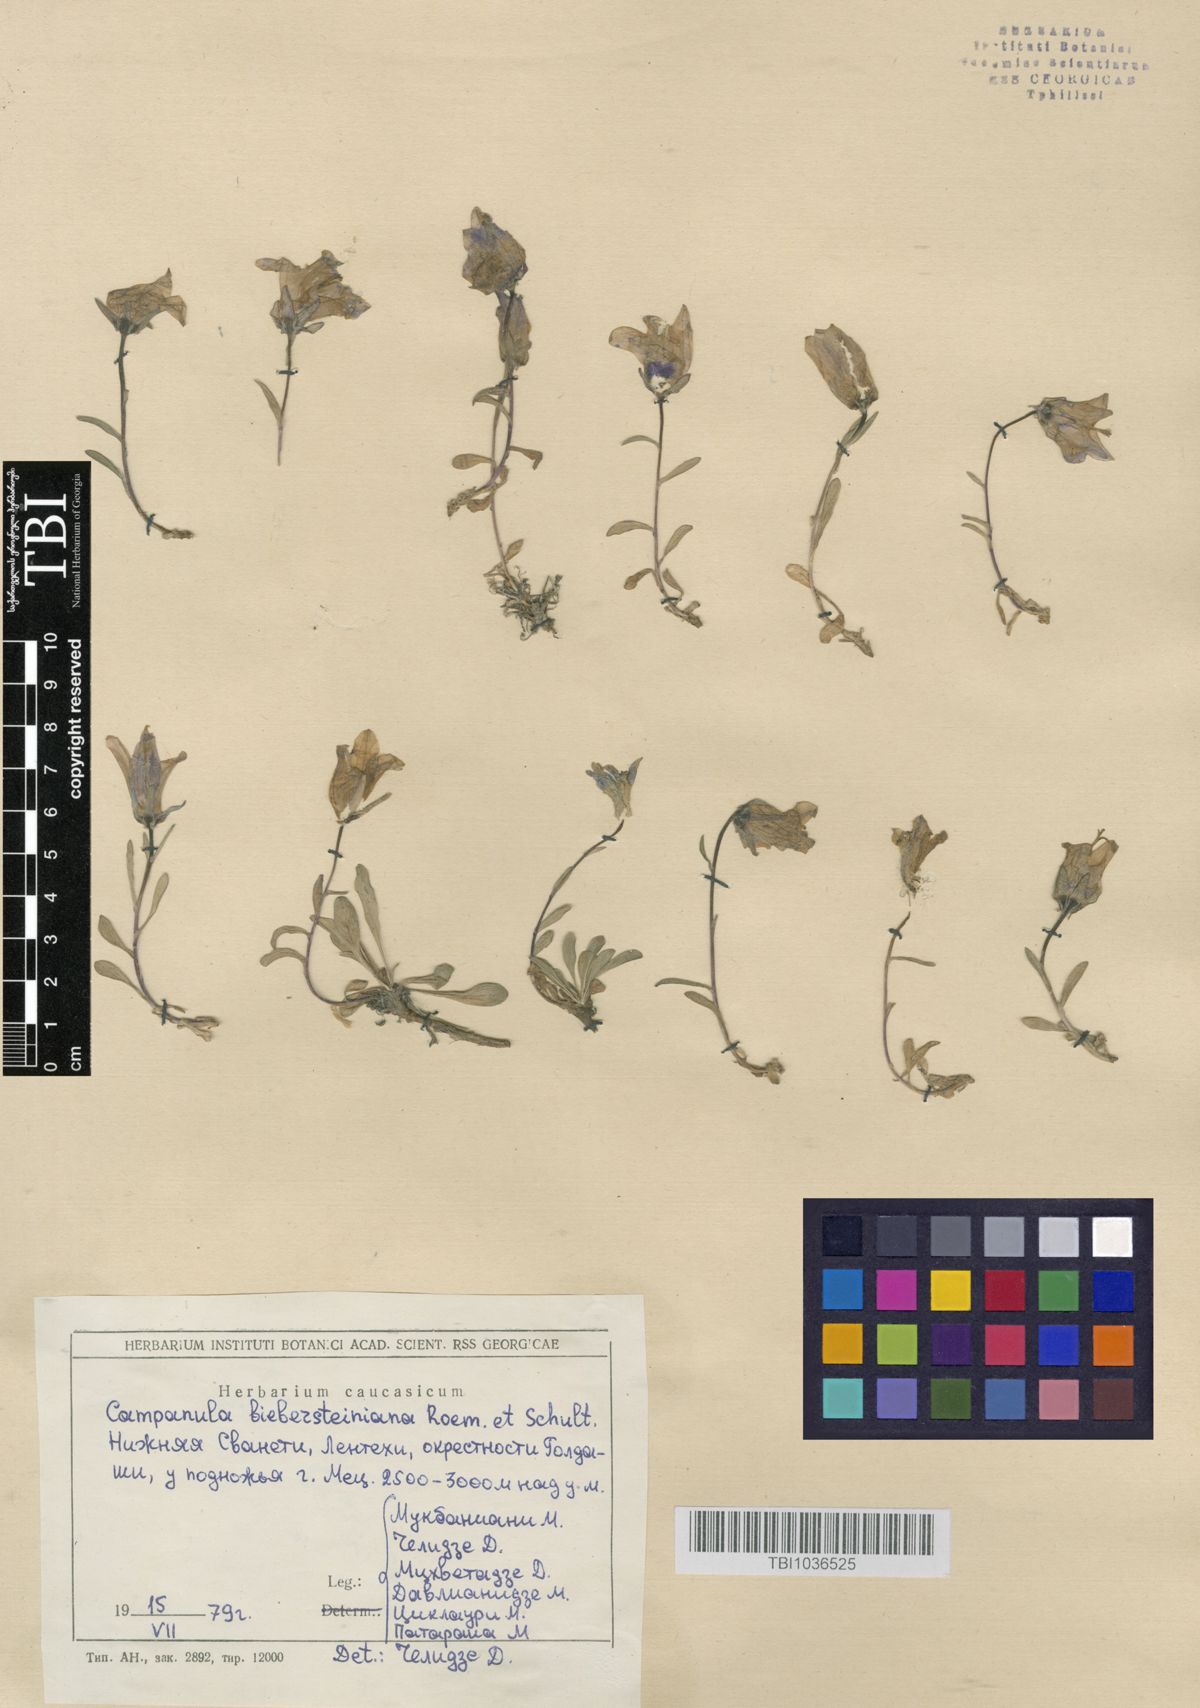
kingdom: Plantae
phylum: Tracheophyta
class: Magnoliopsida
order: Asterales
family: Campanulaceae
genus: Campanula
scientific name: Campanula tridentata
